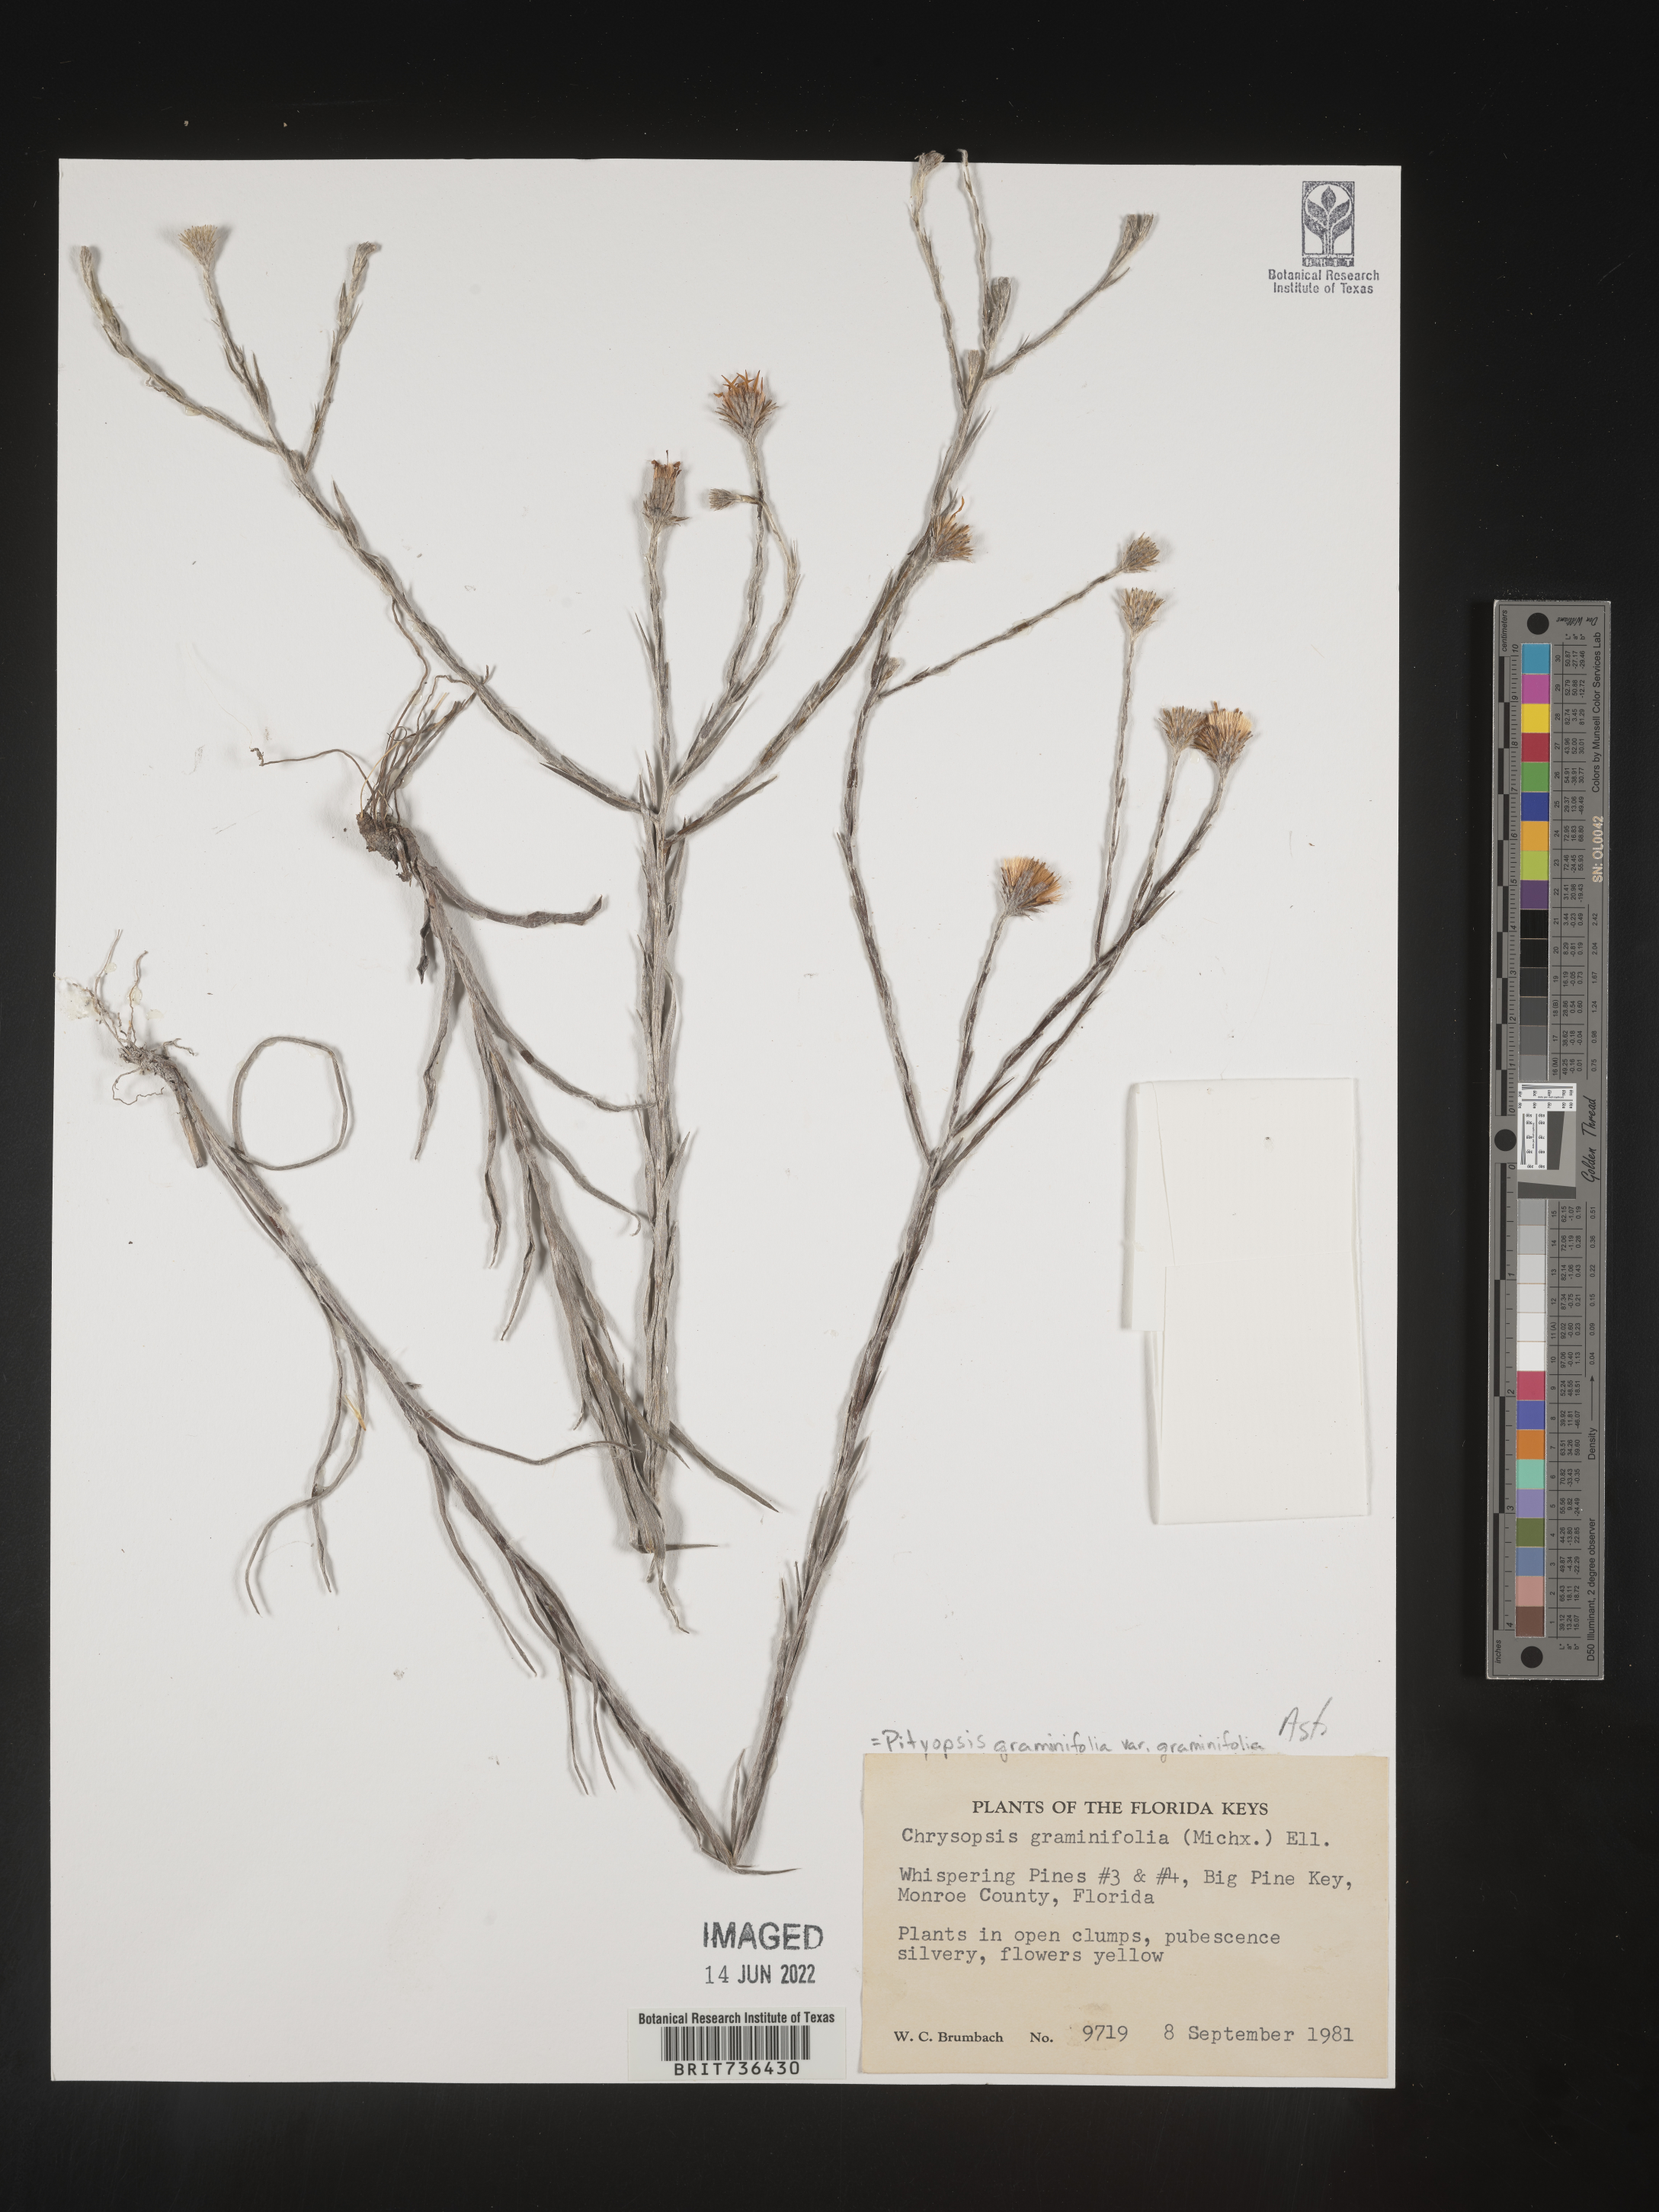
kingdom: Plantae
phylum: Tracheophyta
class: Magnoliopsida
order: Asterales
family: Asteraceae
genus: Pityopsis
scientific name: Pityopsis tracyi
